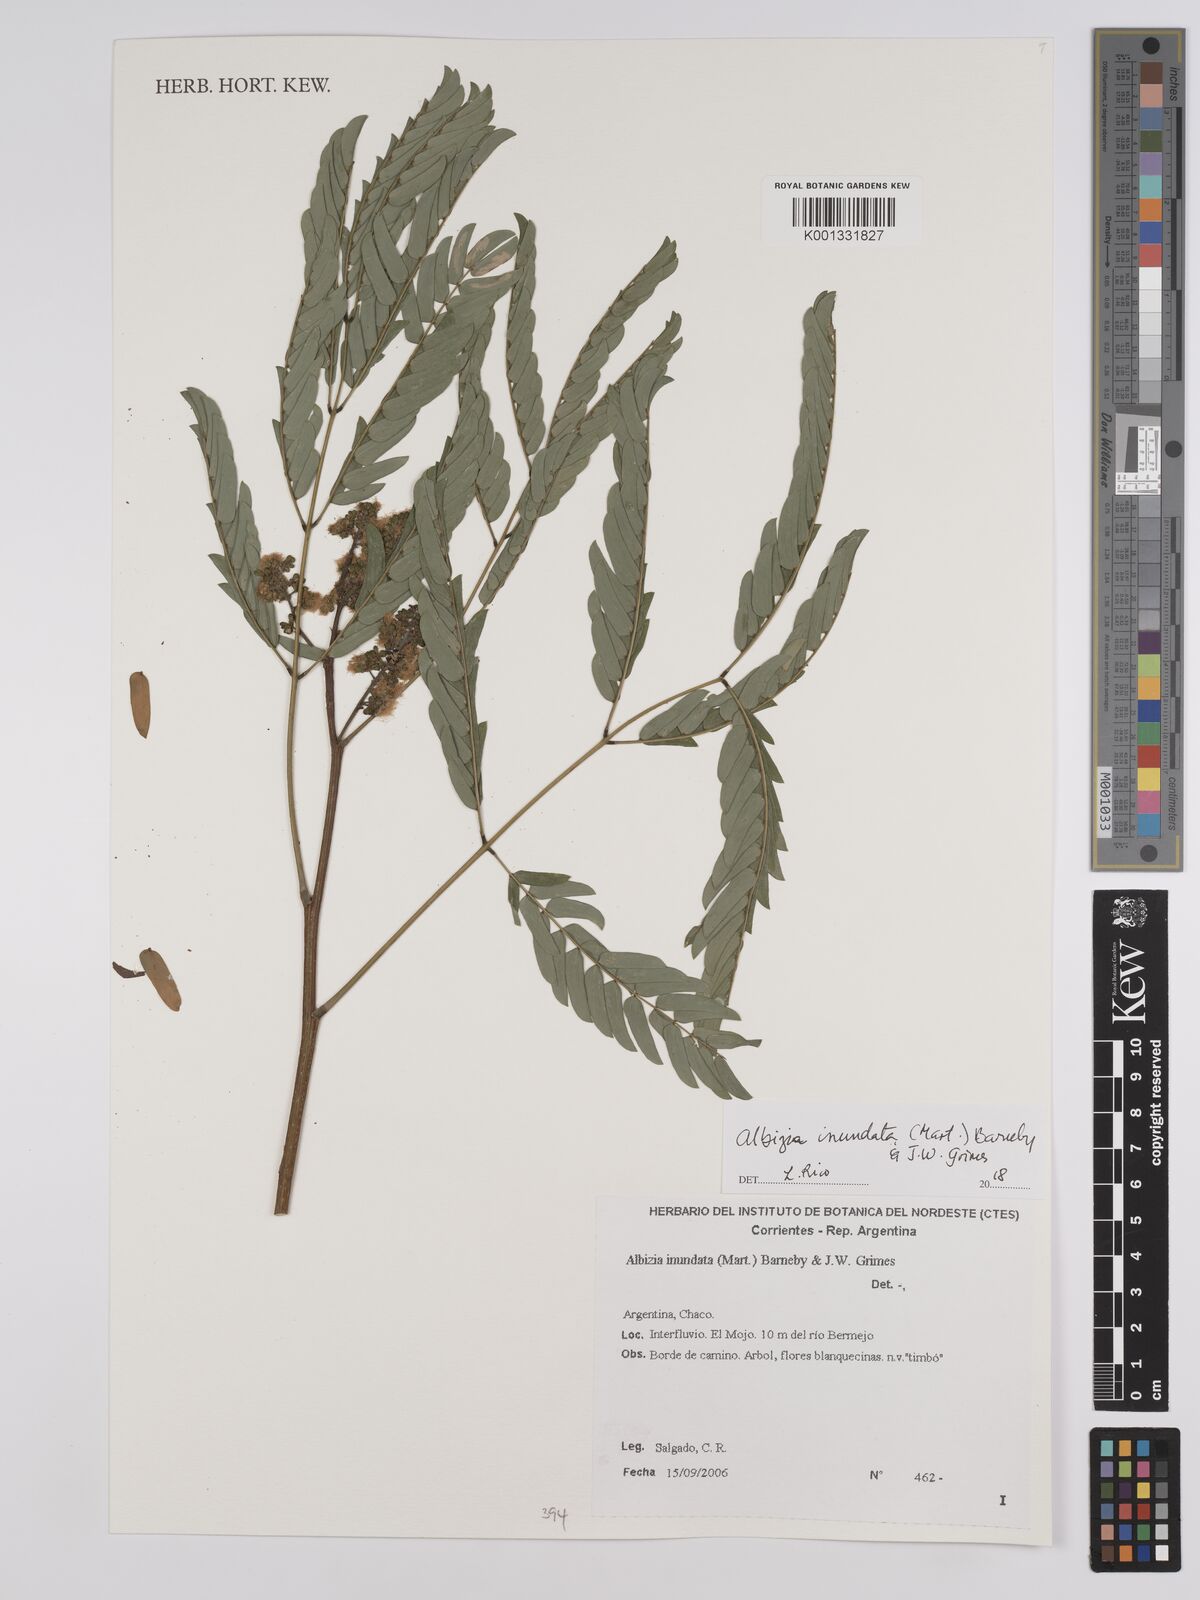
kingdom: Plantae
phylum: Tracheophyta
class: Magnoliopsida
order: Fabales
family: Fabaceae
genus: Albizia
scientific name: Albizia inundata
